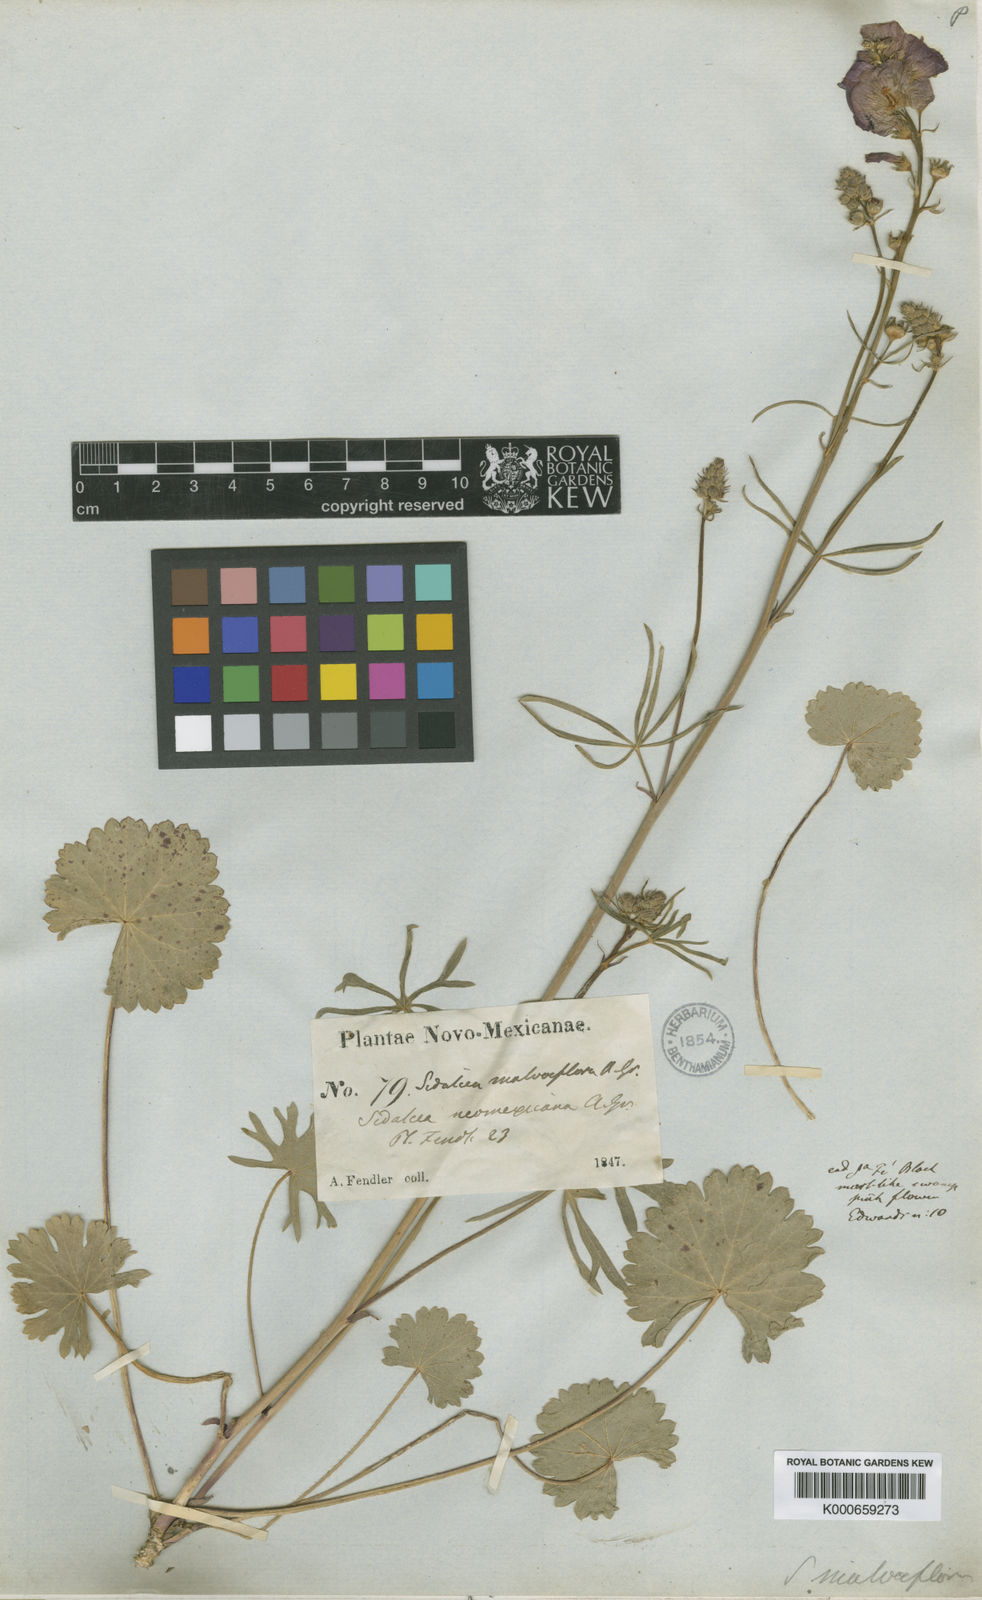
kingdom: Plantae
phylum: Tracheophyta
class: Magnoliopsida
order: Malvales
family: Malvaceae
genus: Sidalcea
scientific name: Sidalcea neomexicana
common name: New mexico checker
